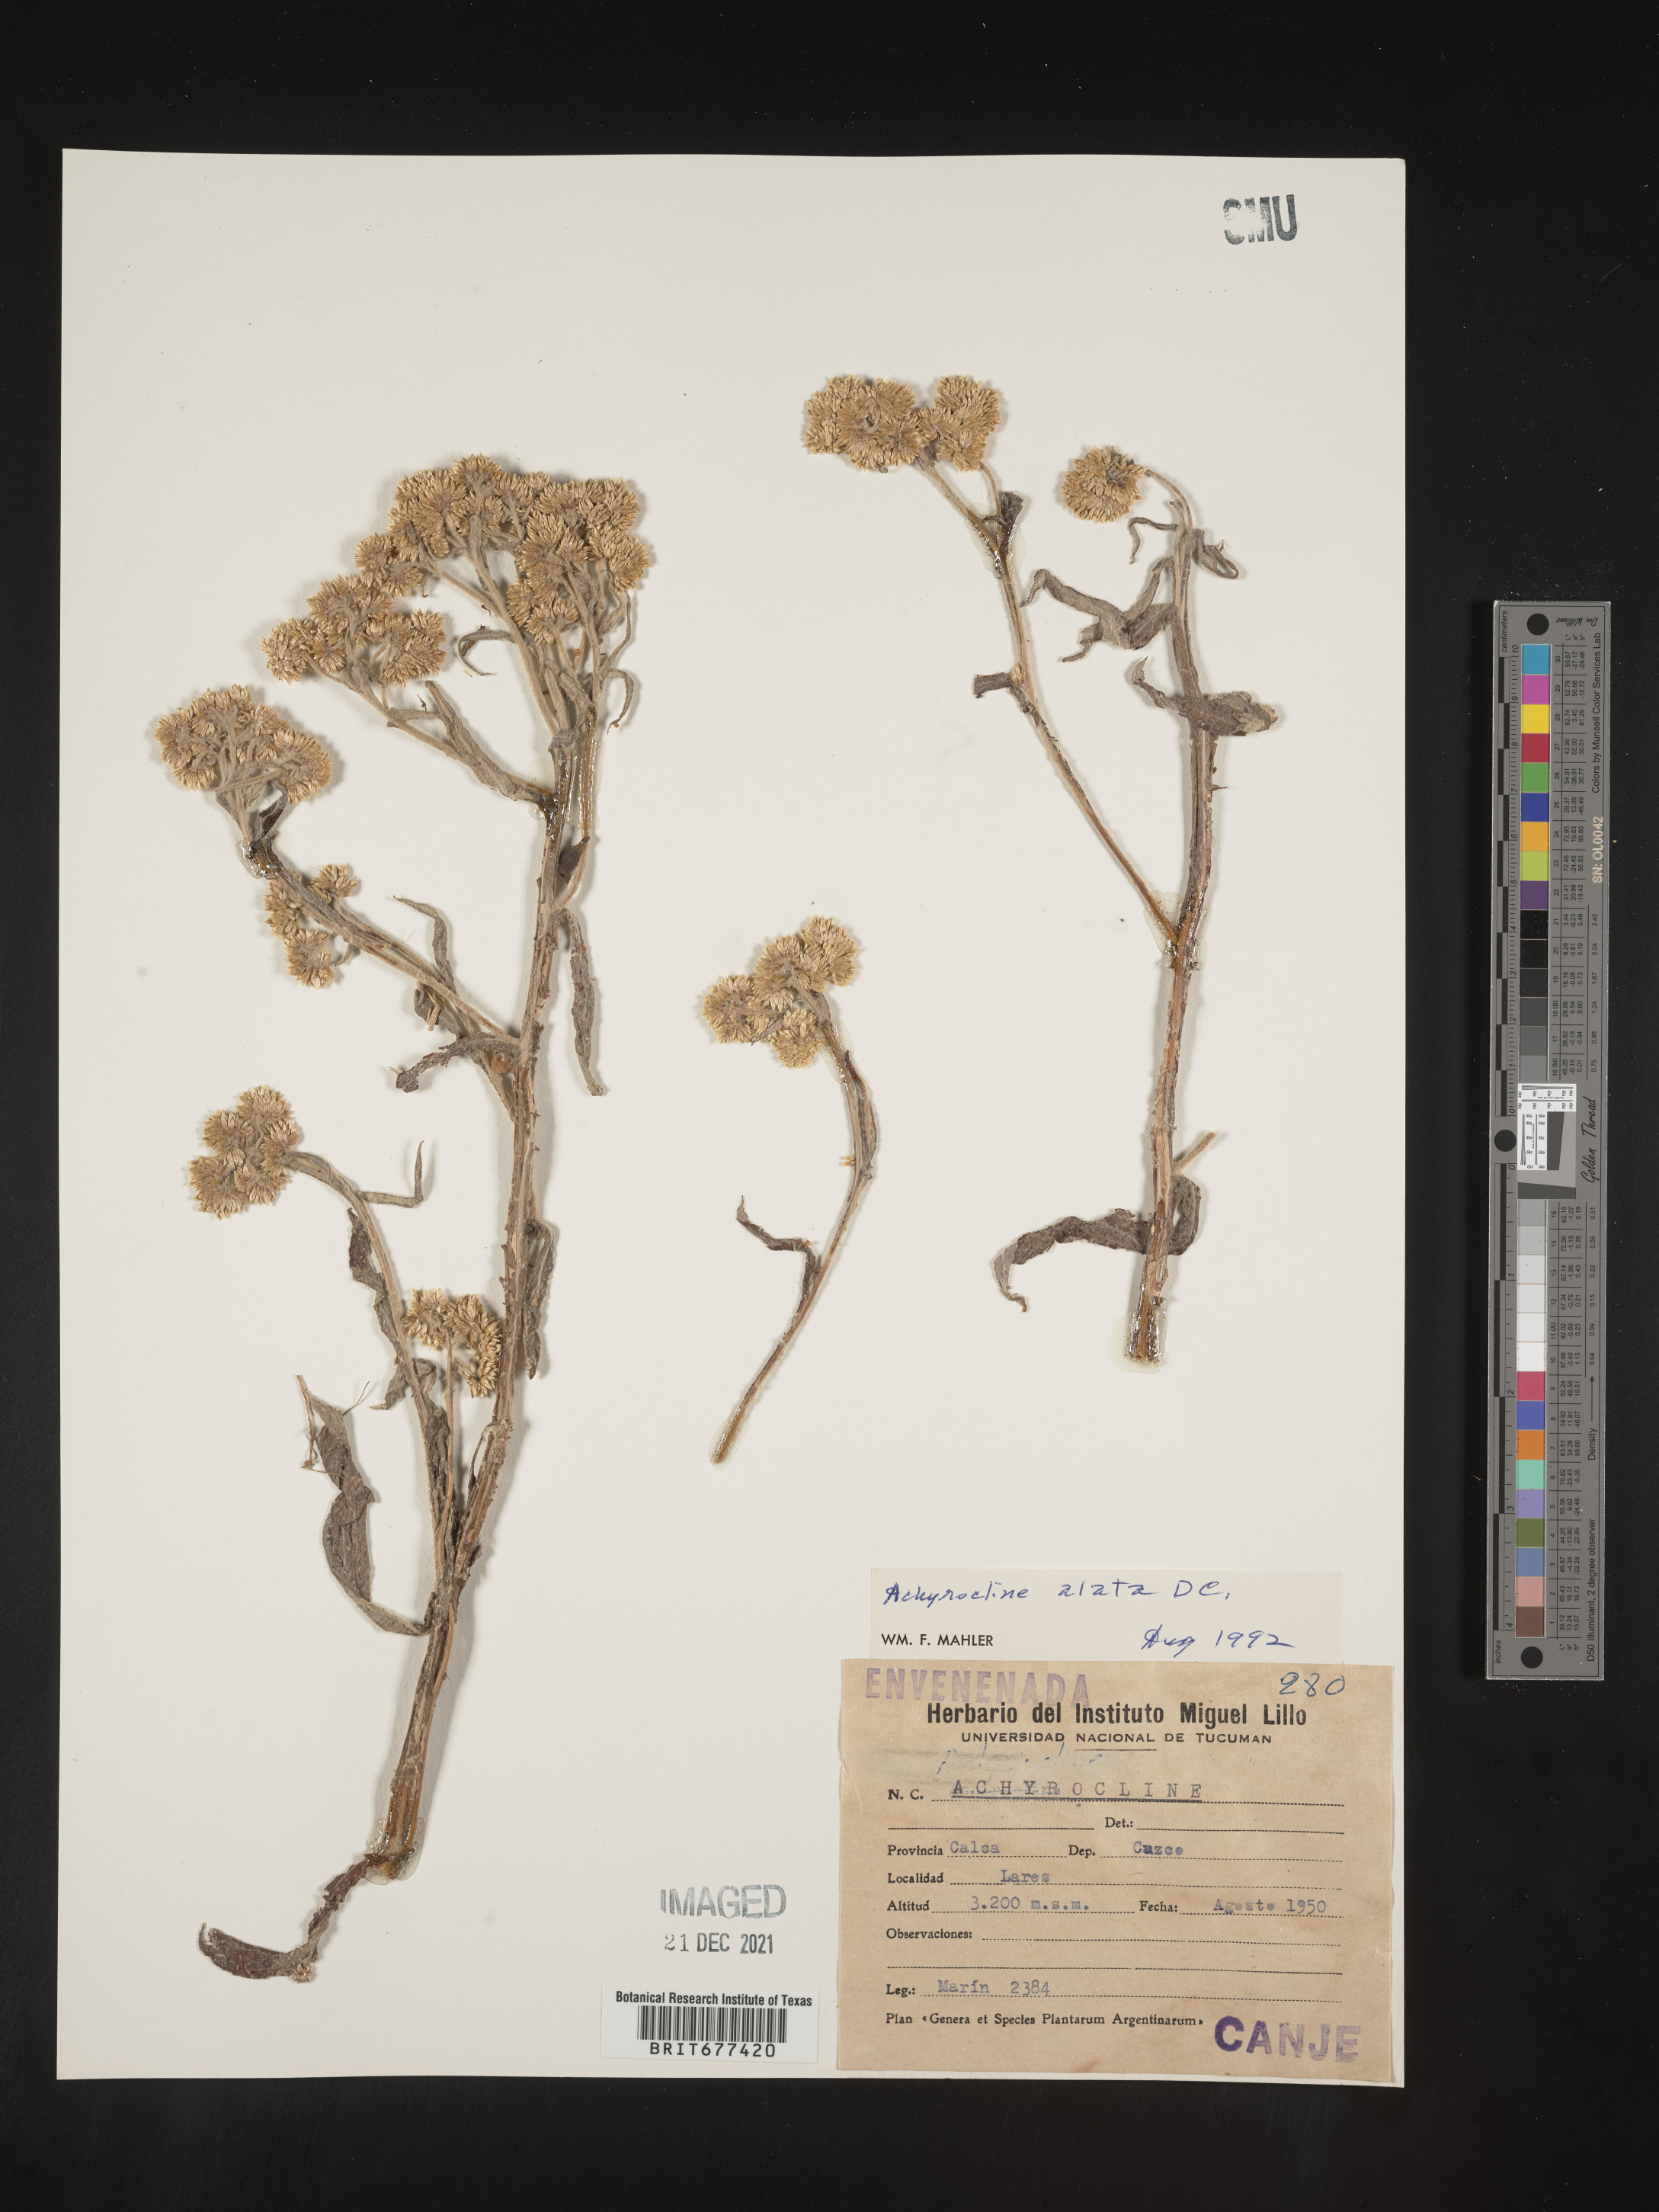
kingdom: Plantae
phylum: Tracheophyta
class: Magnoliopsida
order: Asterales
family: Asteraceae
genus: Achyrocline
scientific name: Achyrocline
